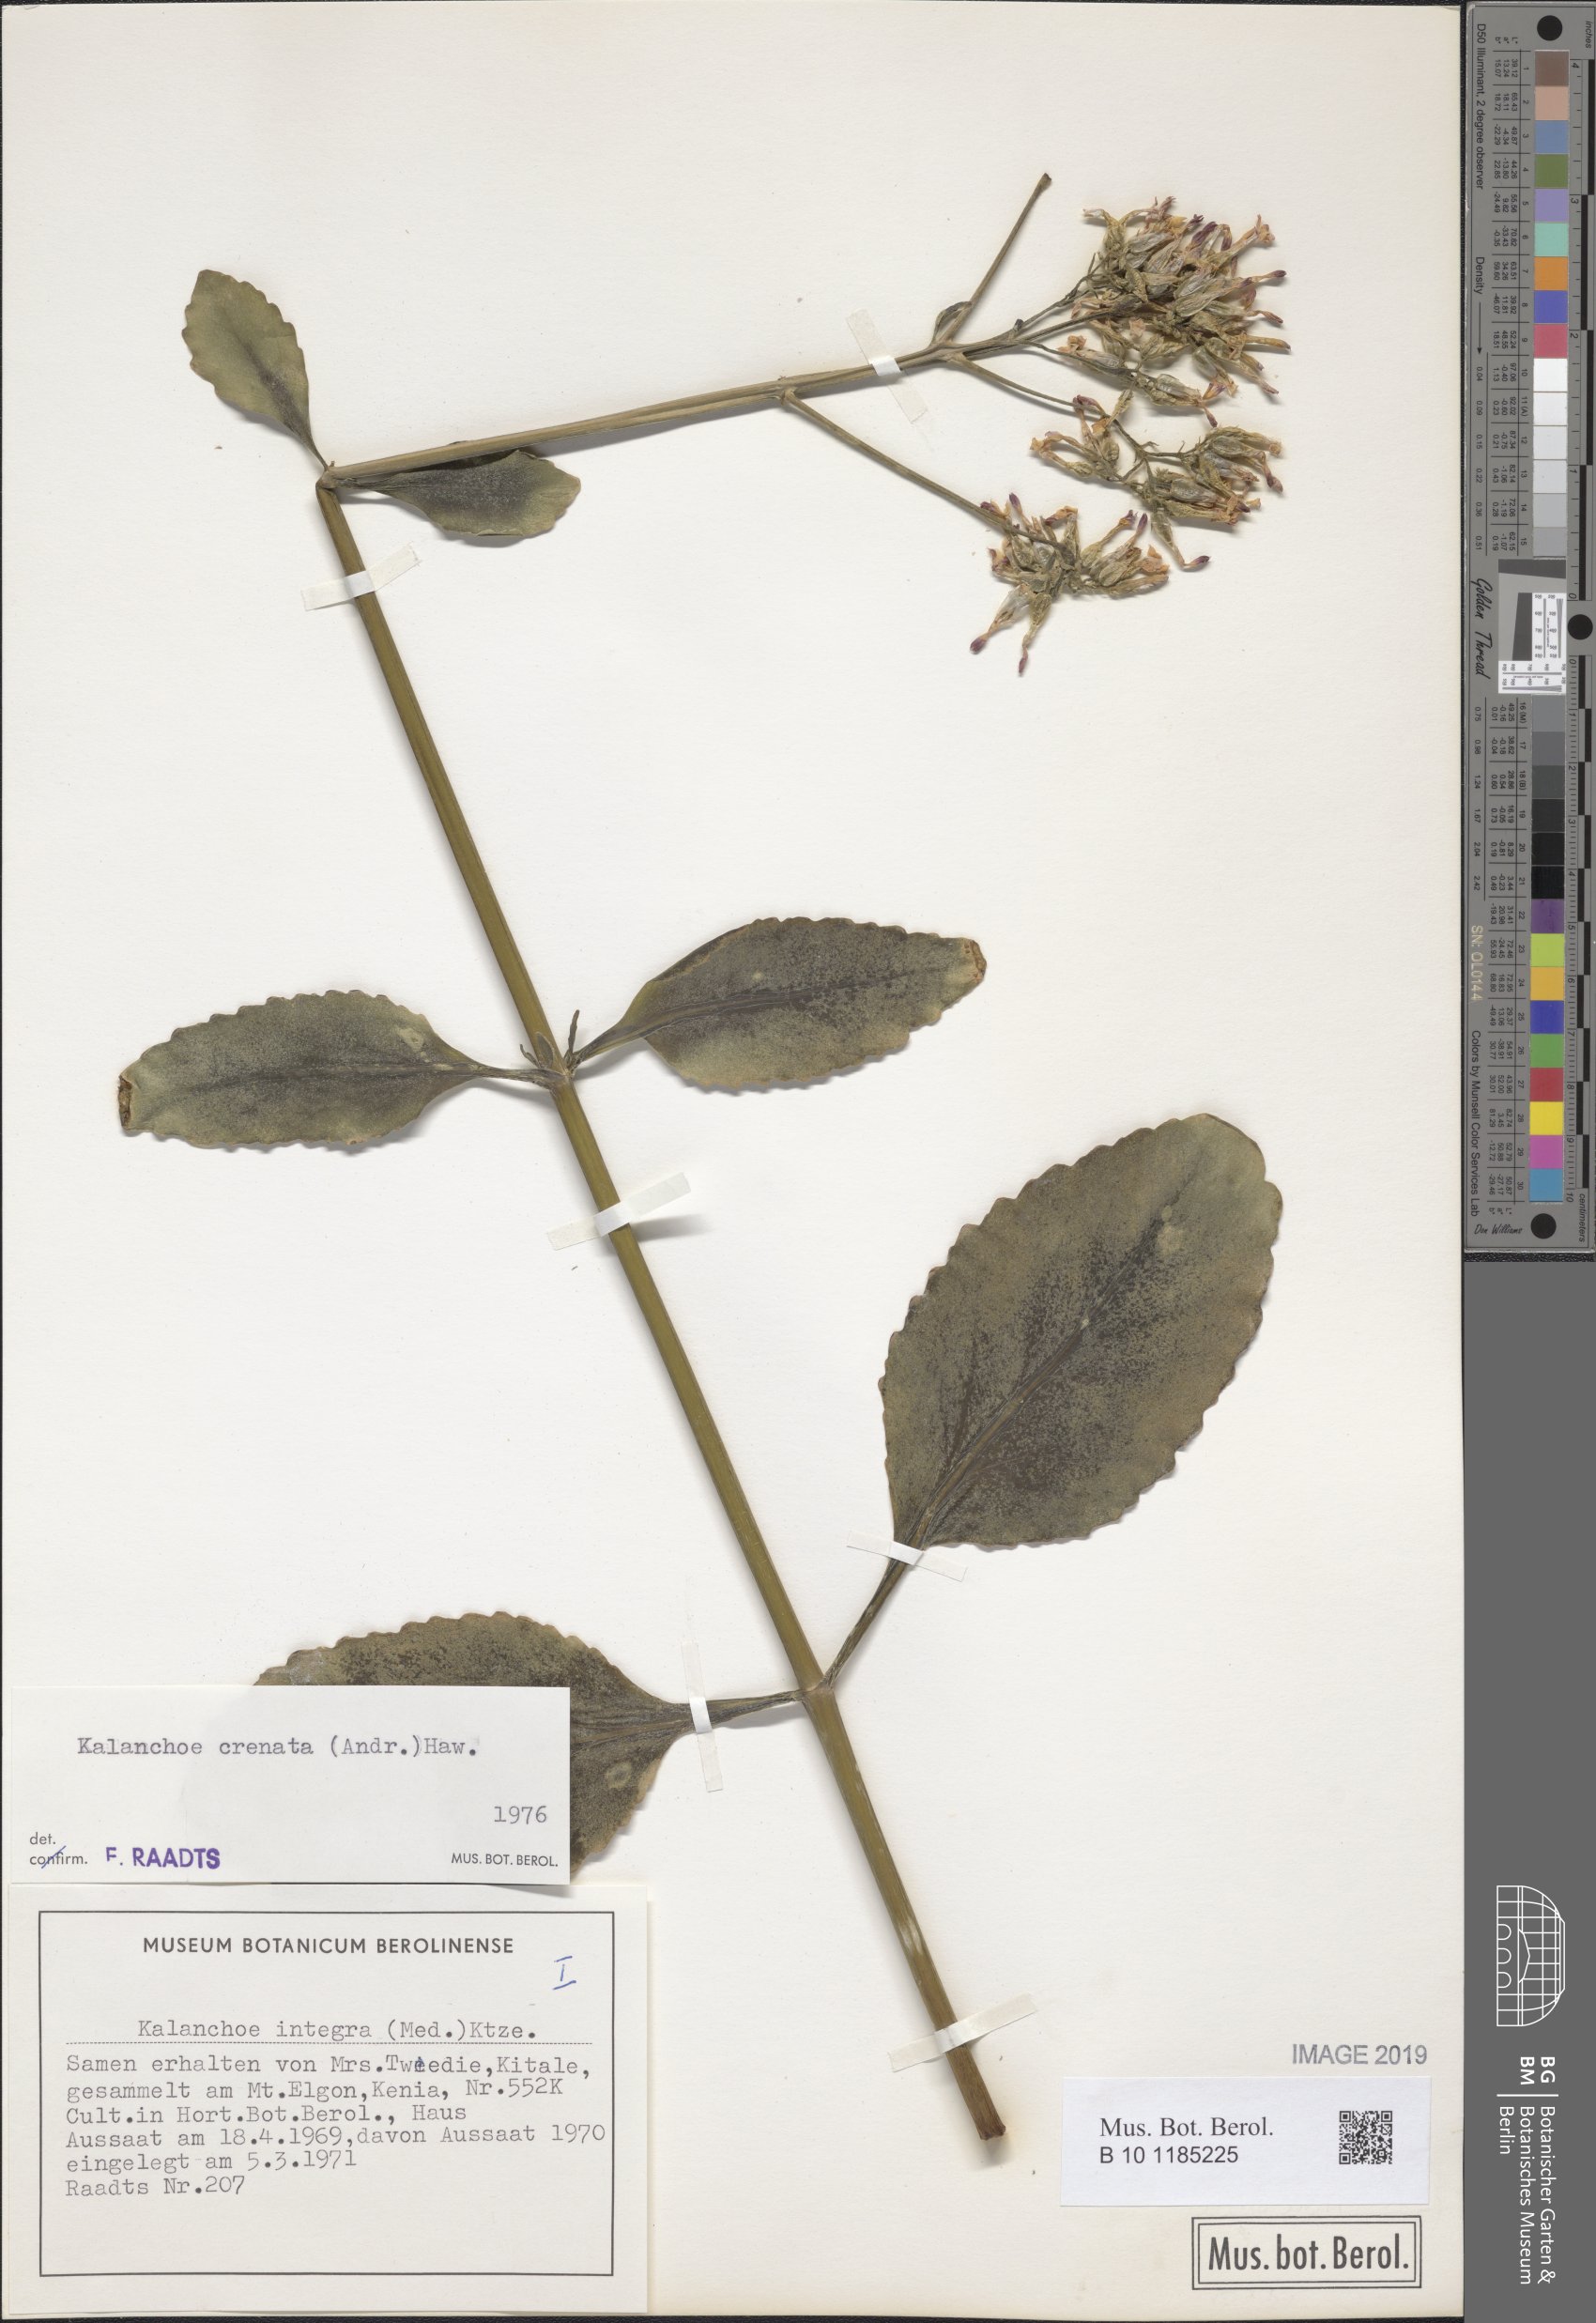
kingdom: Plantae
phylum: Tracheophyta
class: Magnoliopsida
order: Saxifragales
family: Crassulaceae
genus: Kalanchoe
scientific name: Kalanchoe crenata
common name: Neverdie
